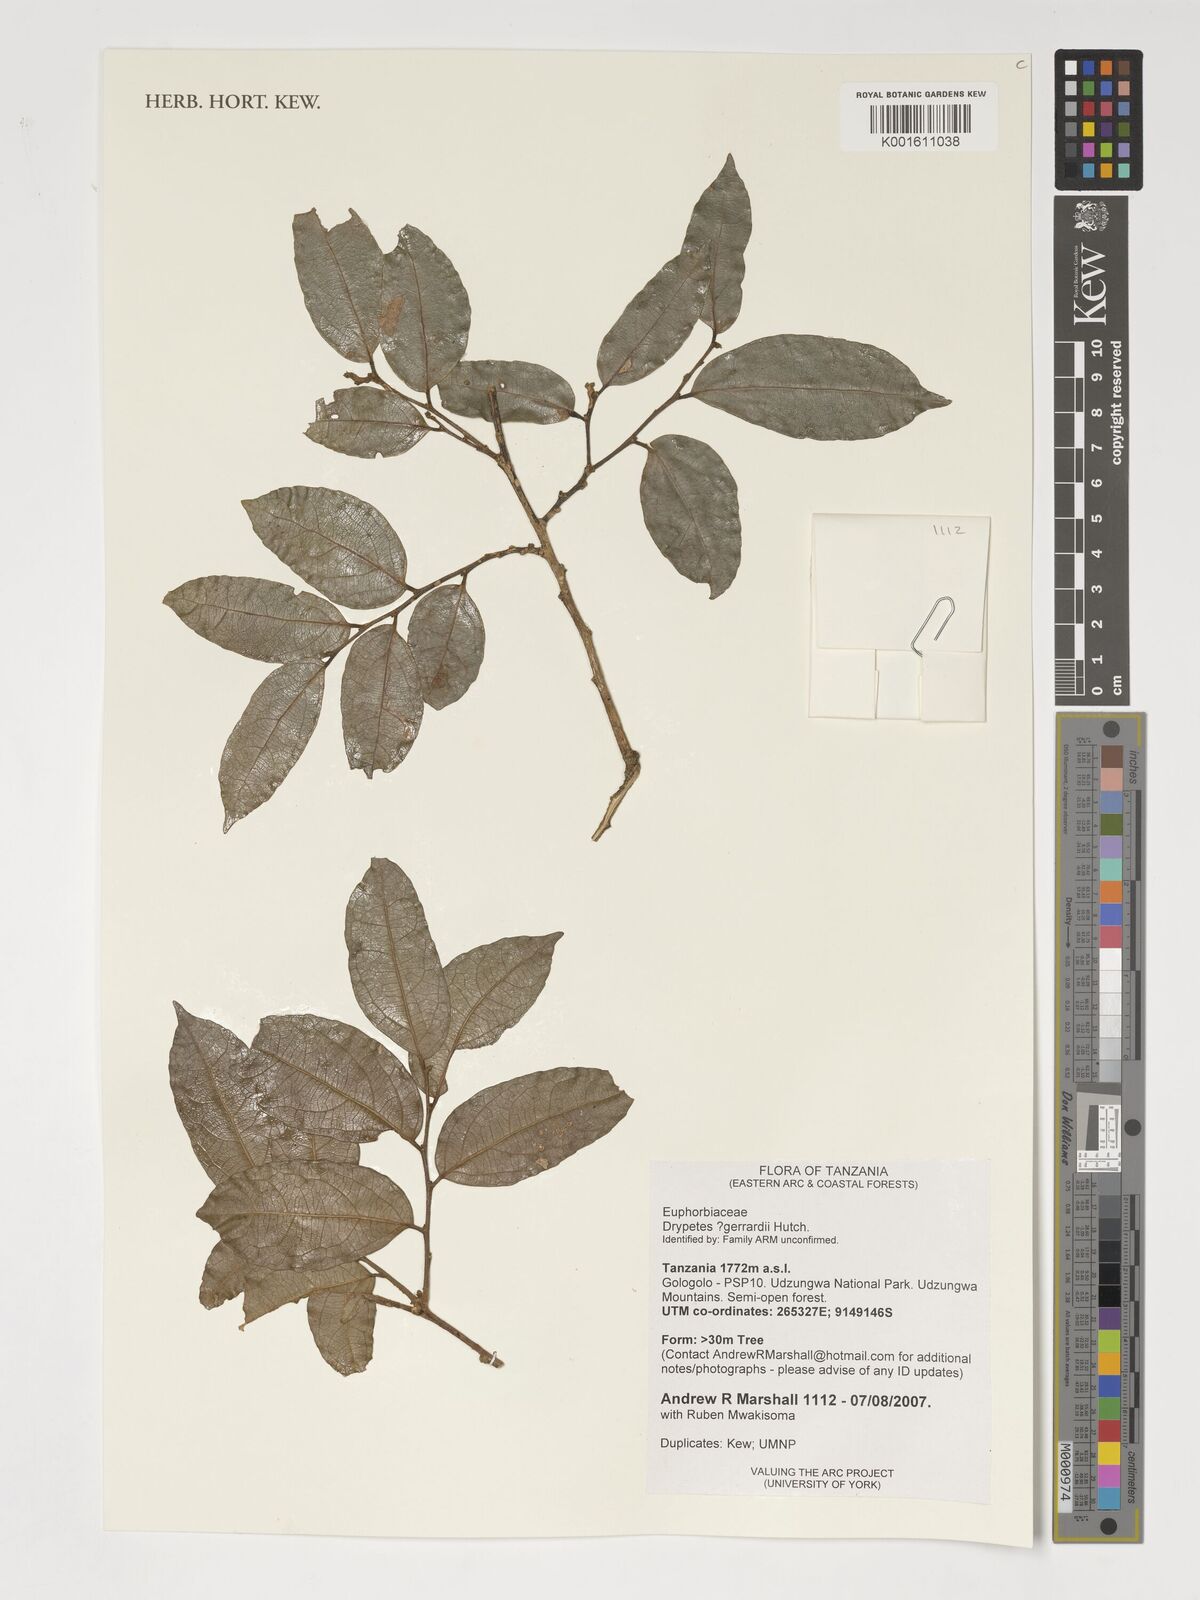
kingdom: Plantae
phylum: Tracheophyta
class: Magnoliopsida
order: Malpighiales
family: Putranjivaceae
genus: Drypetes
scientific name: Drypetes gerrardii
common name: Forest ironplum
